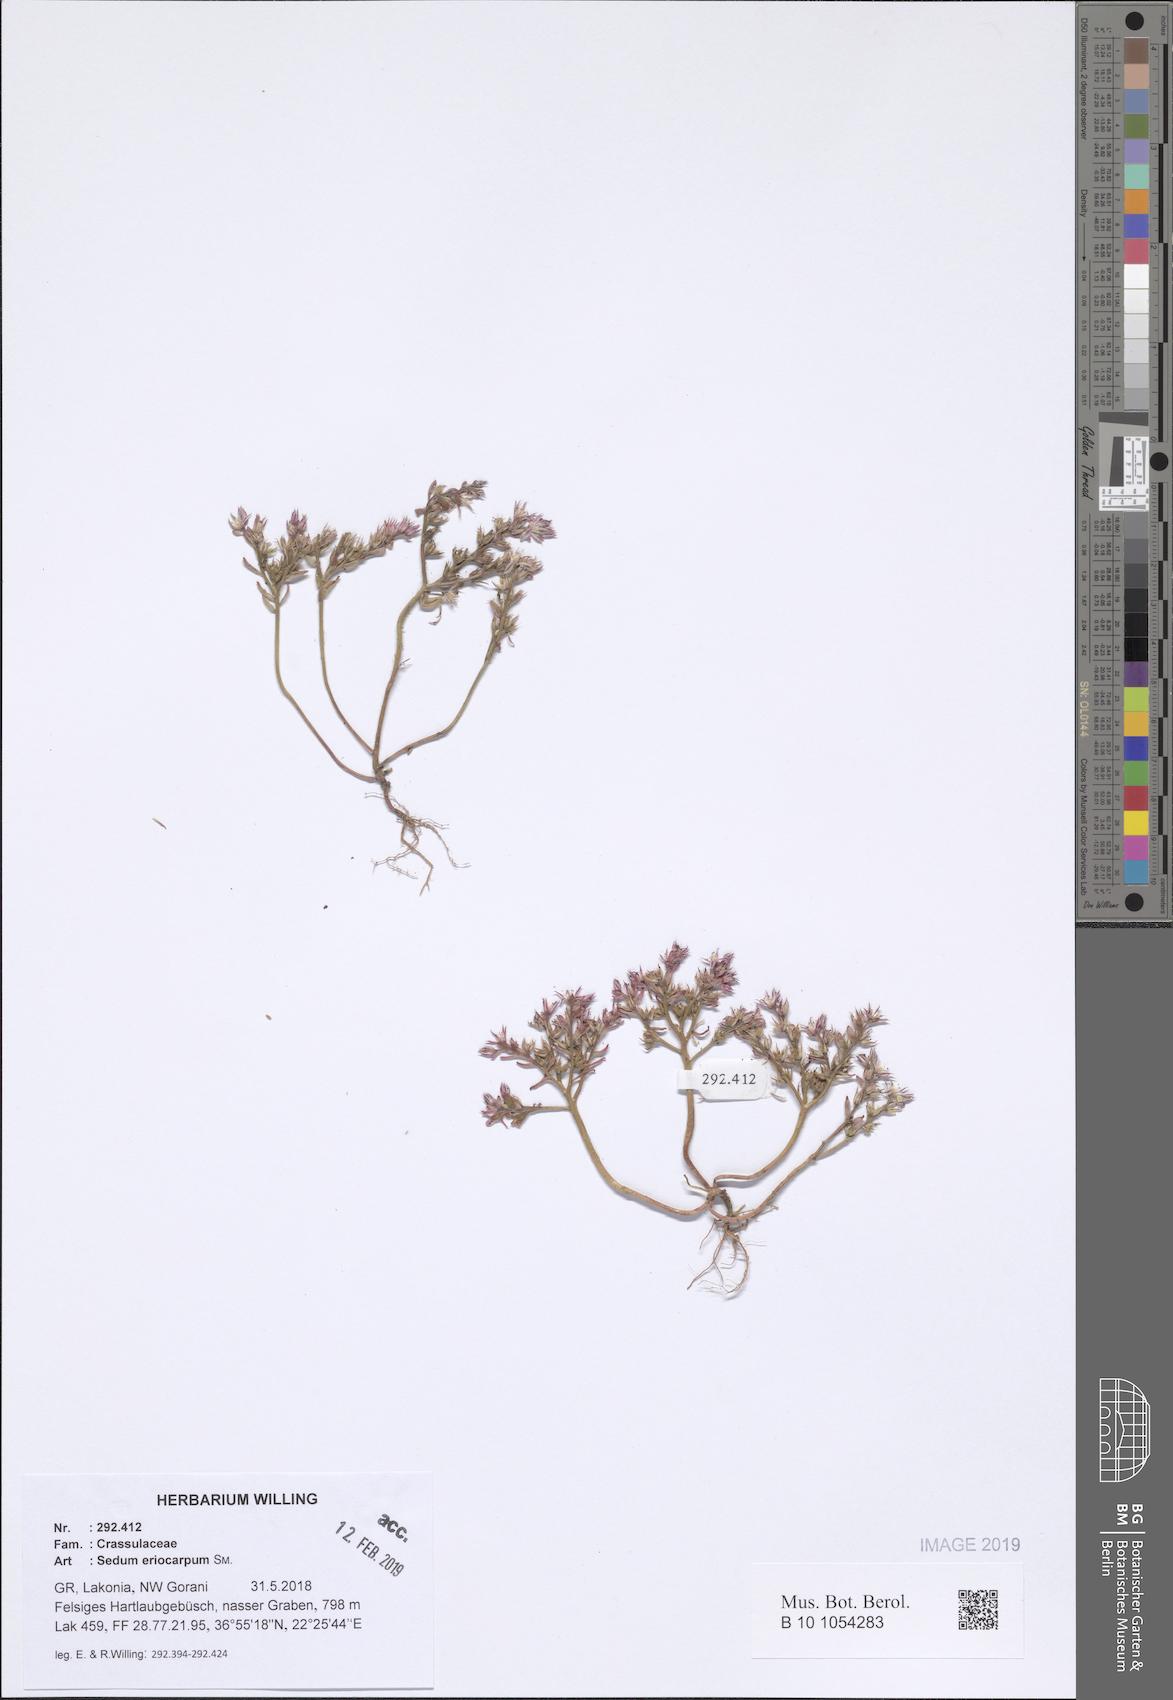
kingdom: Plantae
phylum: Tracheophyta
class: Magnoliopsida
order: Saxifragales
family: Crassulaceae
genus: Sedum
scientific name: Sedum eriocarpum
